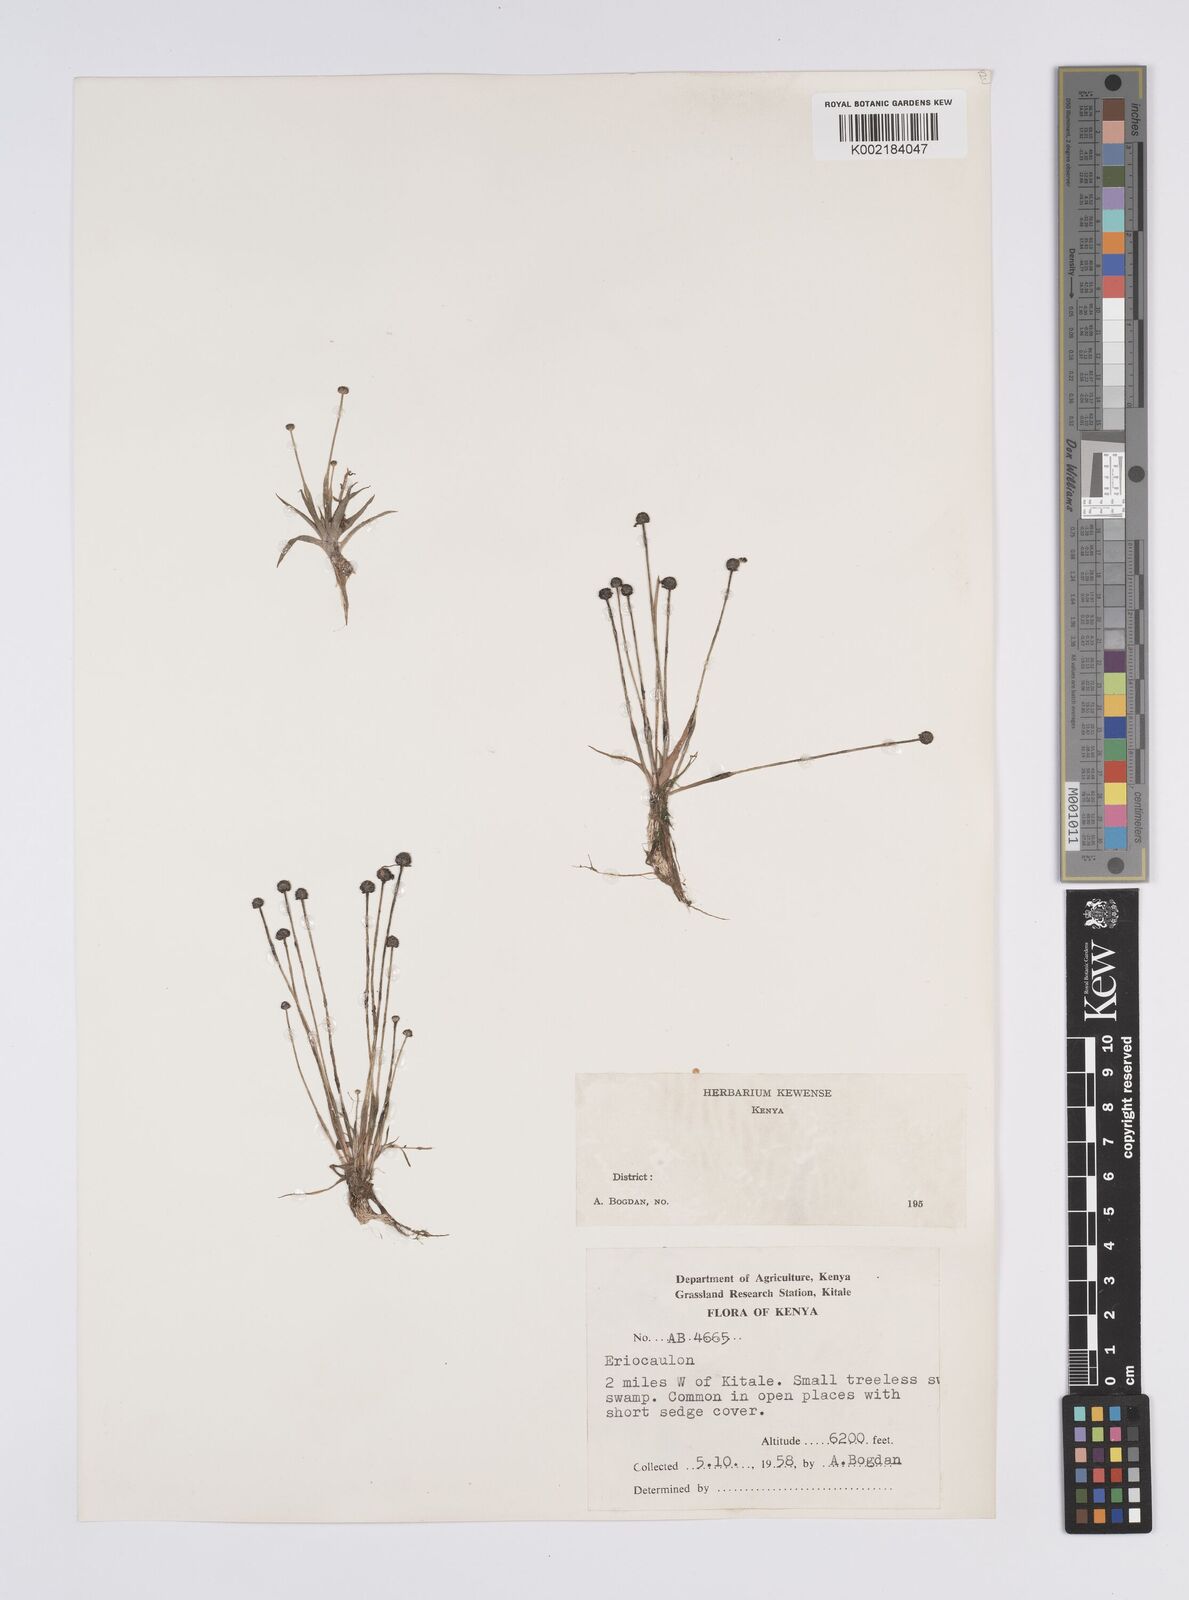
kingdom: Plantae
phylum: Tracheophyta
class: Liliopsida
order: Poales
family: Eriocaulaceae
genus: Eriocaulon
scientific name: Eriocaulon
